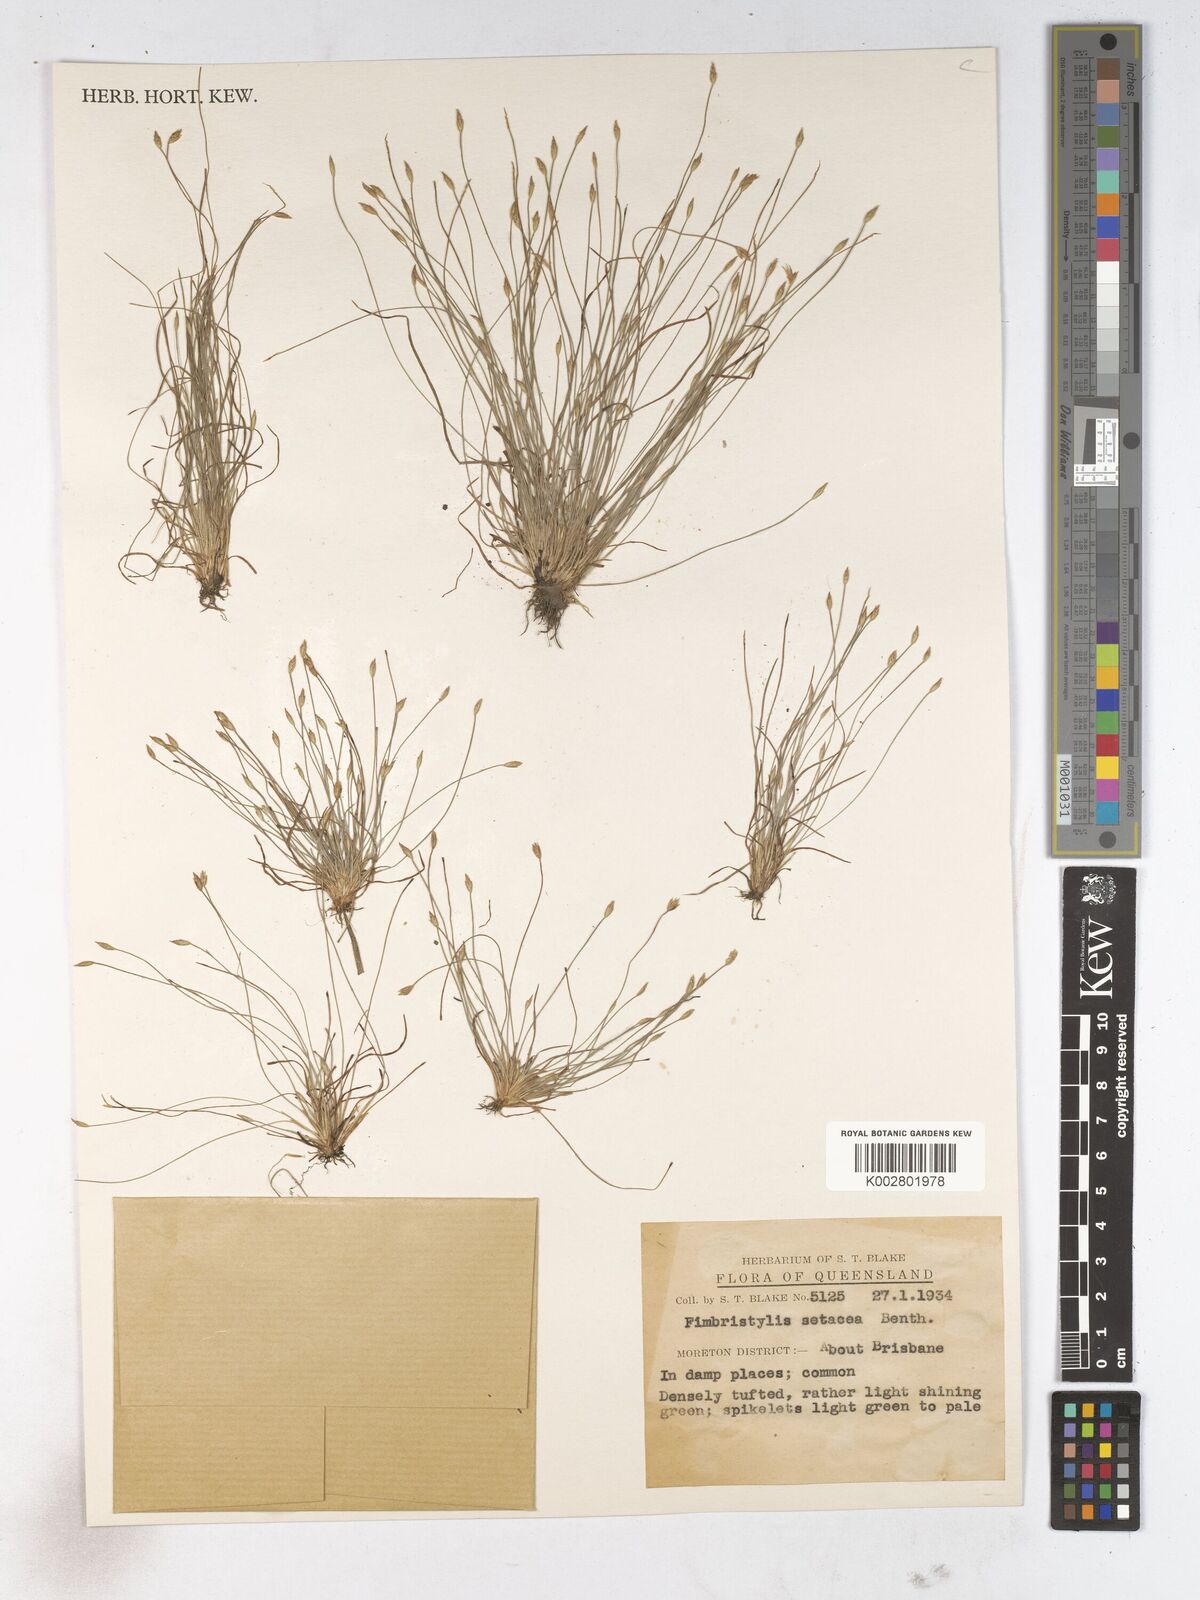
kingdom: Plantae
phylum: Tracheophyta
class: Liliopsida
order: Poales
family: Cyperaceae
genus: Fimbristylis
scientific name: Fimbristylis acicularis
